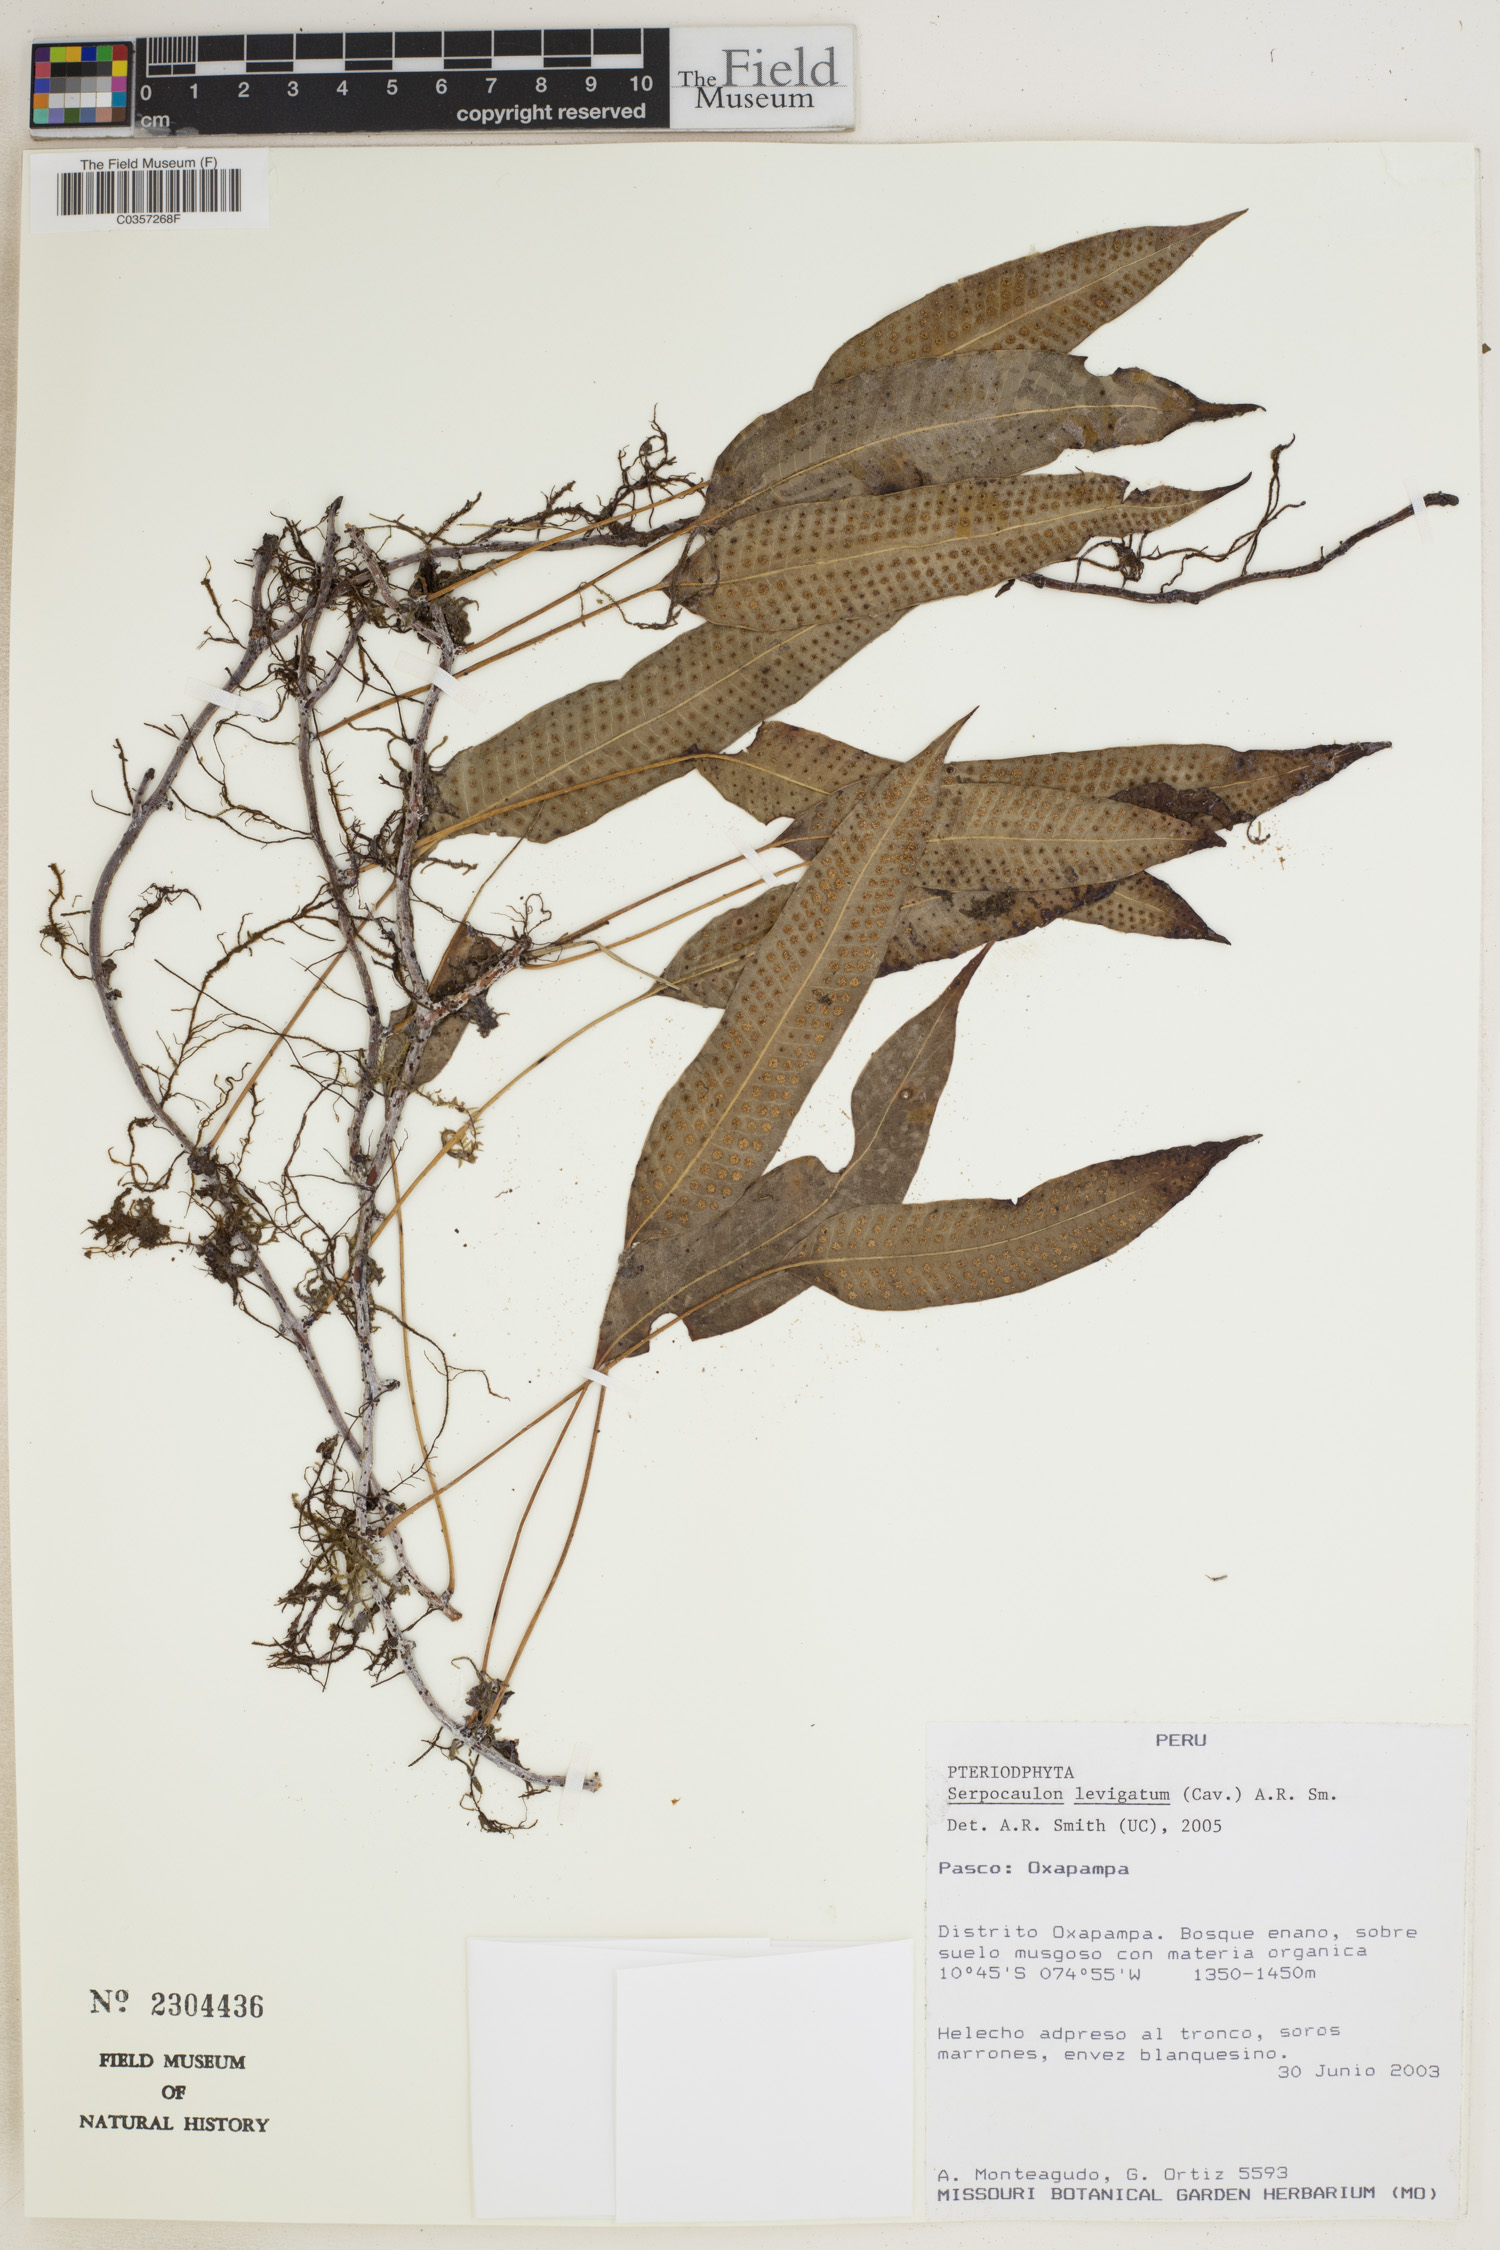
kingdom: Plantae
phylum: Tracheophyta
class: Polypodiopsida
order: Polypodiales
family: Polypodiaceae
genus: Serpocaulon
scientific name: Serpocaulon levigatum
